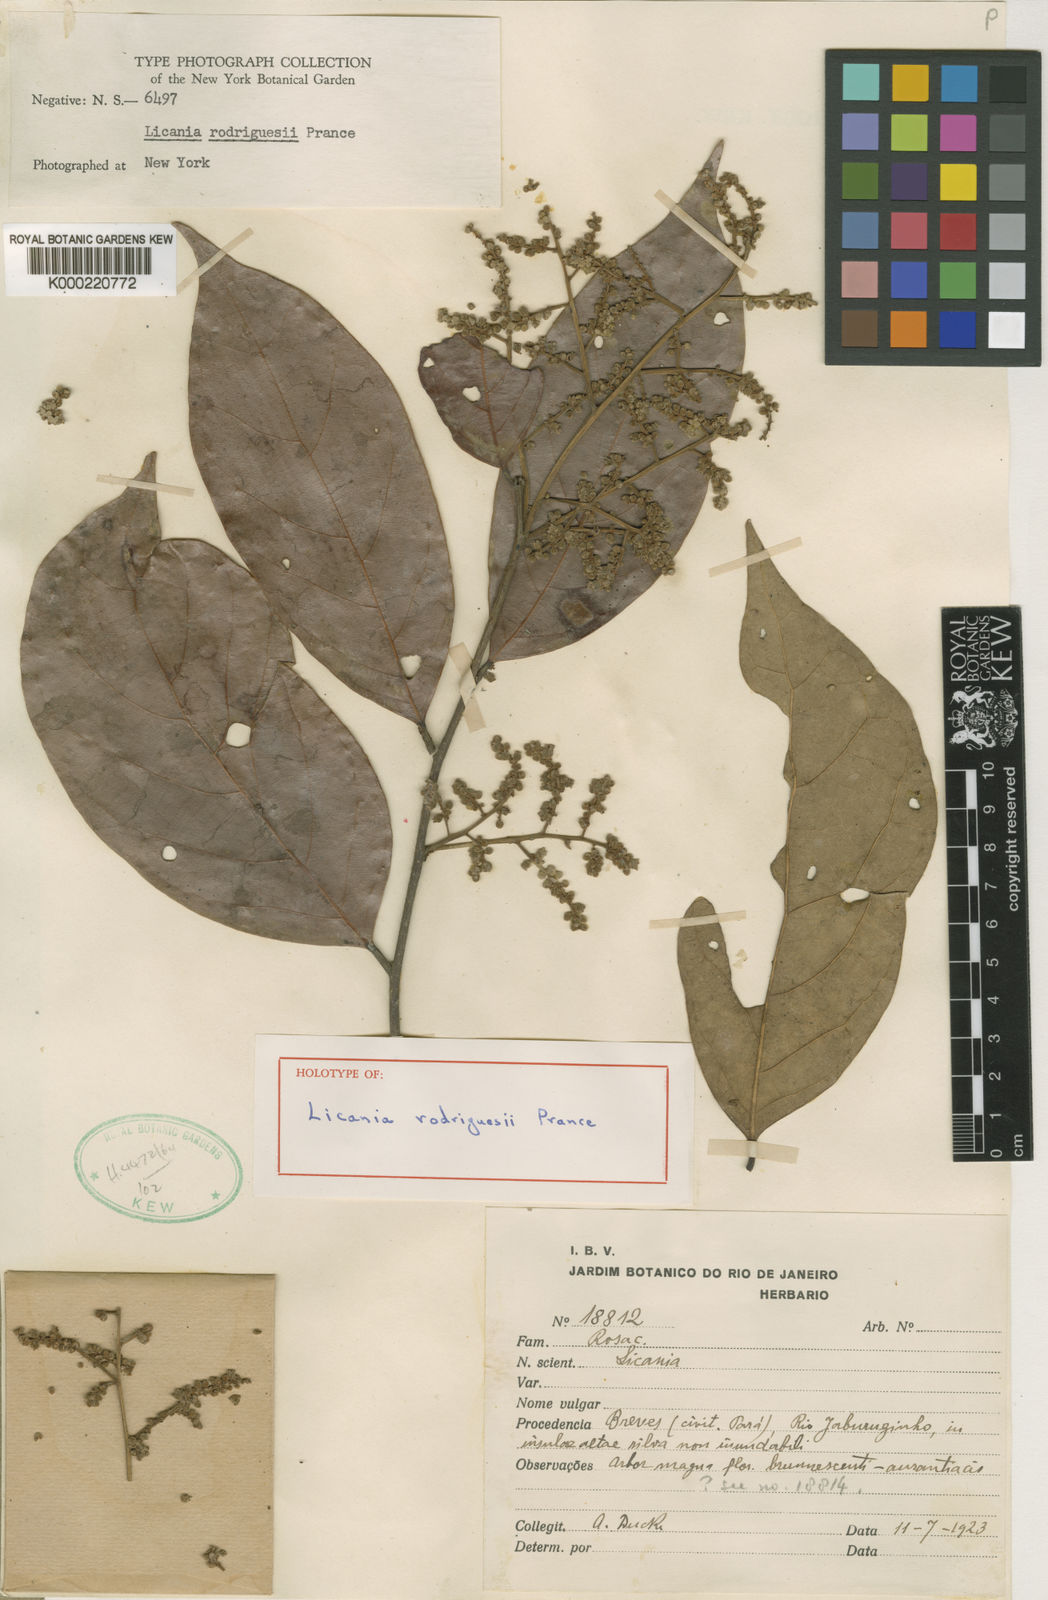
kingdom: Plantae
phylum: Tracheophyta
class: Magnoliopsida
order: Malpighiales
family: Chrysobalanaceae
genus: Licania
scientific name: Licania rodriguesii
